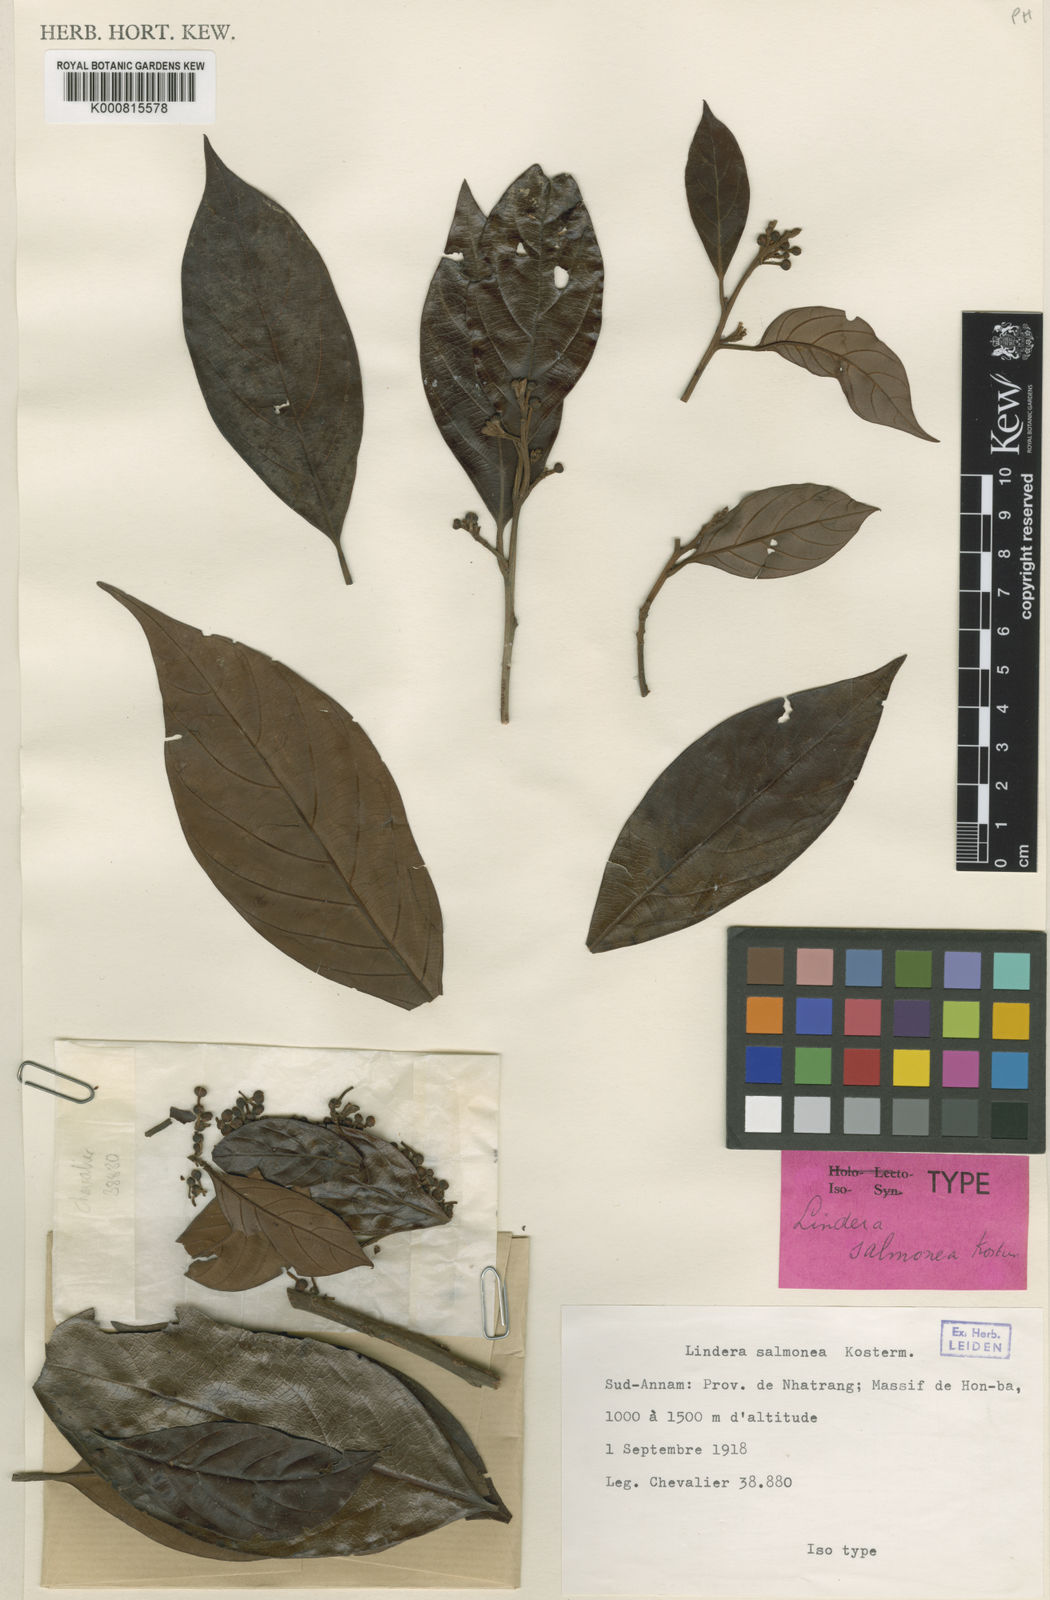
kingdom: Plantae
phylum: Tracheophyta
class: Magnoliopsida
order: Laurales
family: Lauraceae
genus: Lindera
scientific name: Lindera
